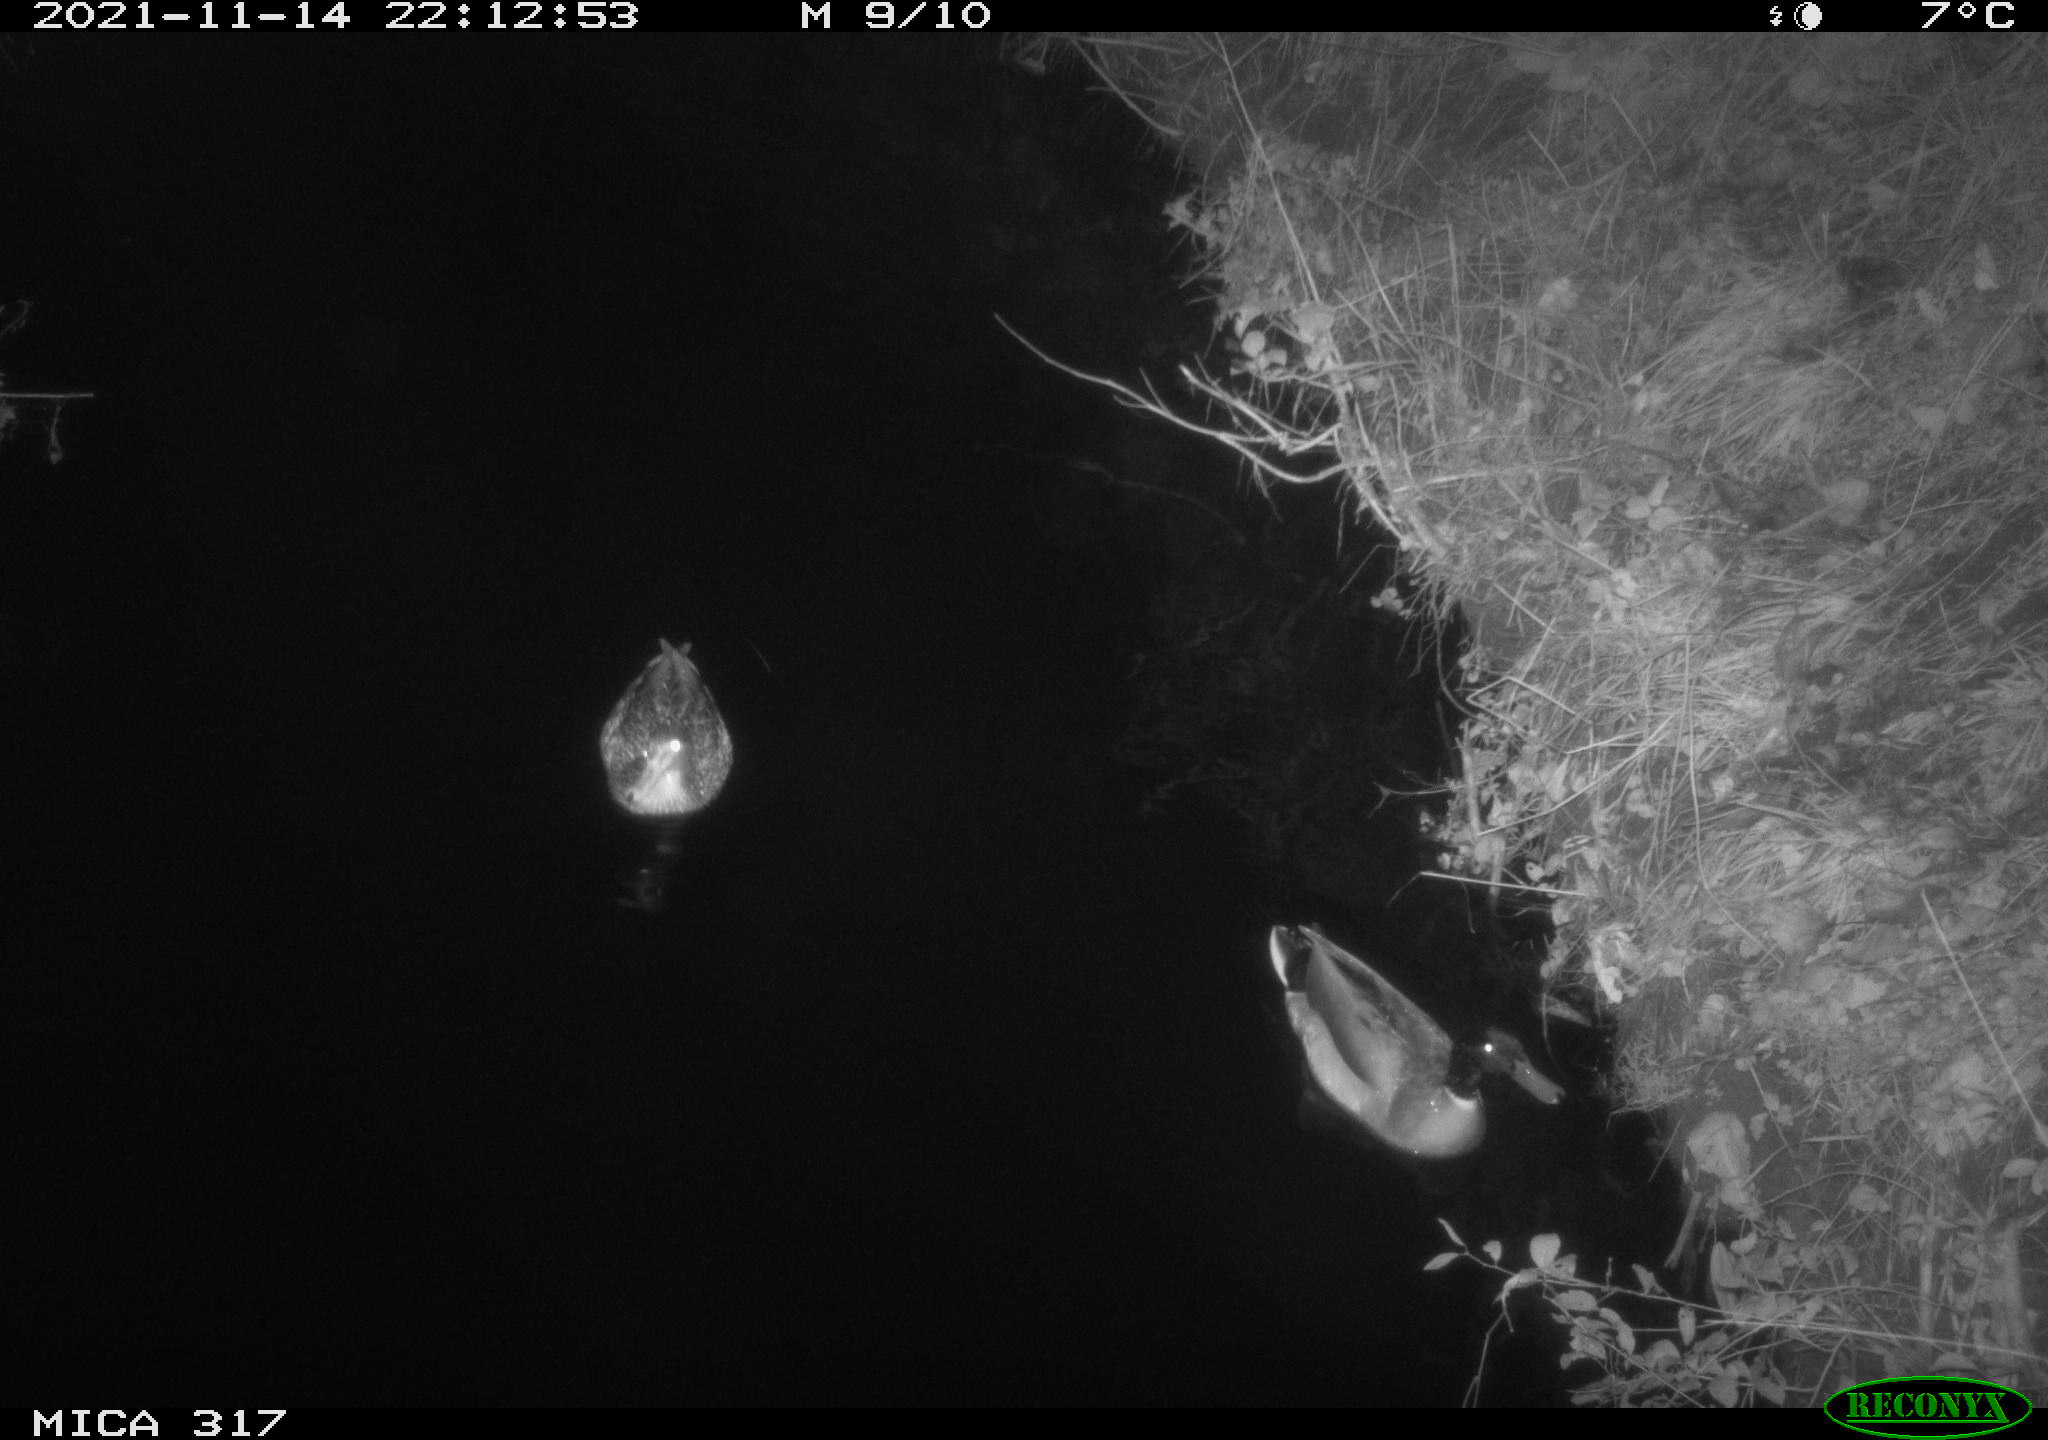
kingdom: Animalia
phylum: Chordata
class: Aves
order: Anseriformes
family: Anatidae
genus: Anas
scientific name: Anas platyrhynchos
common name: Mallard
